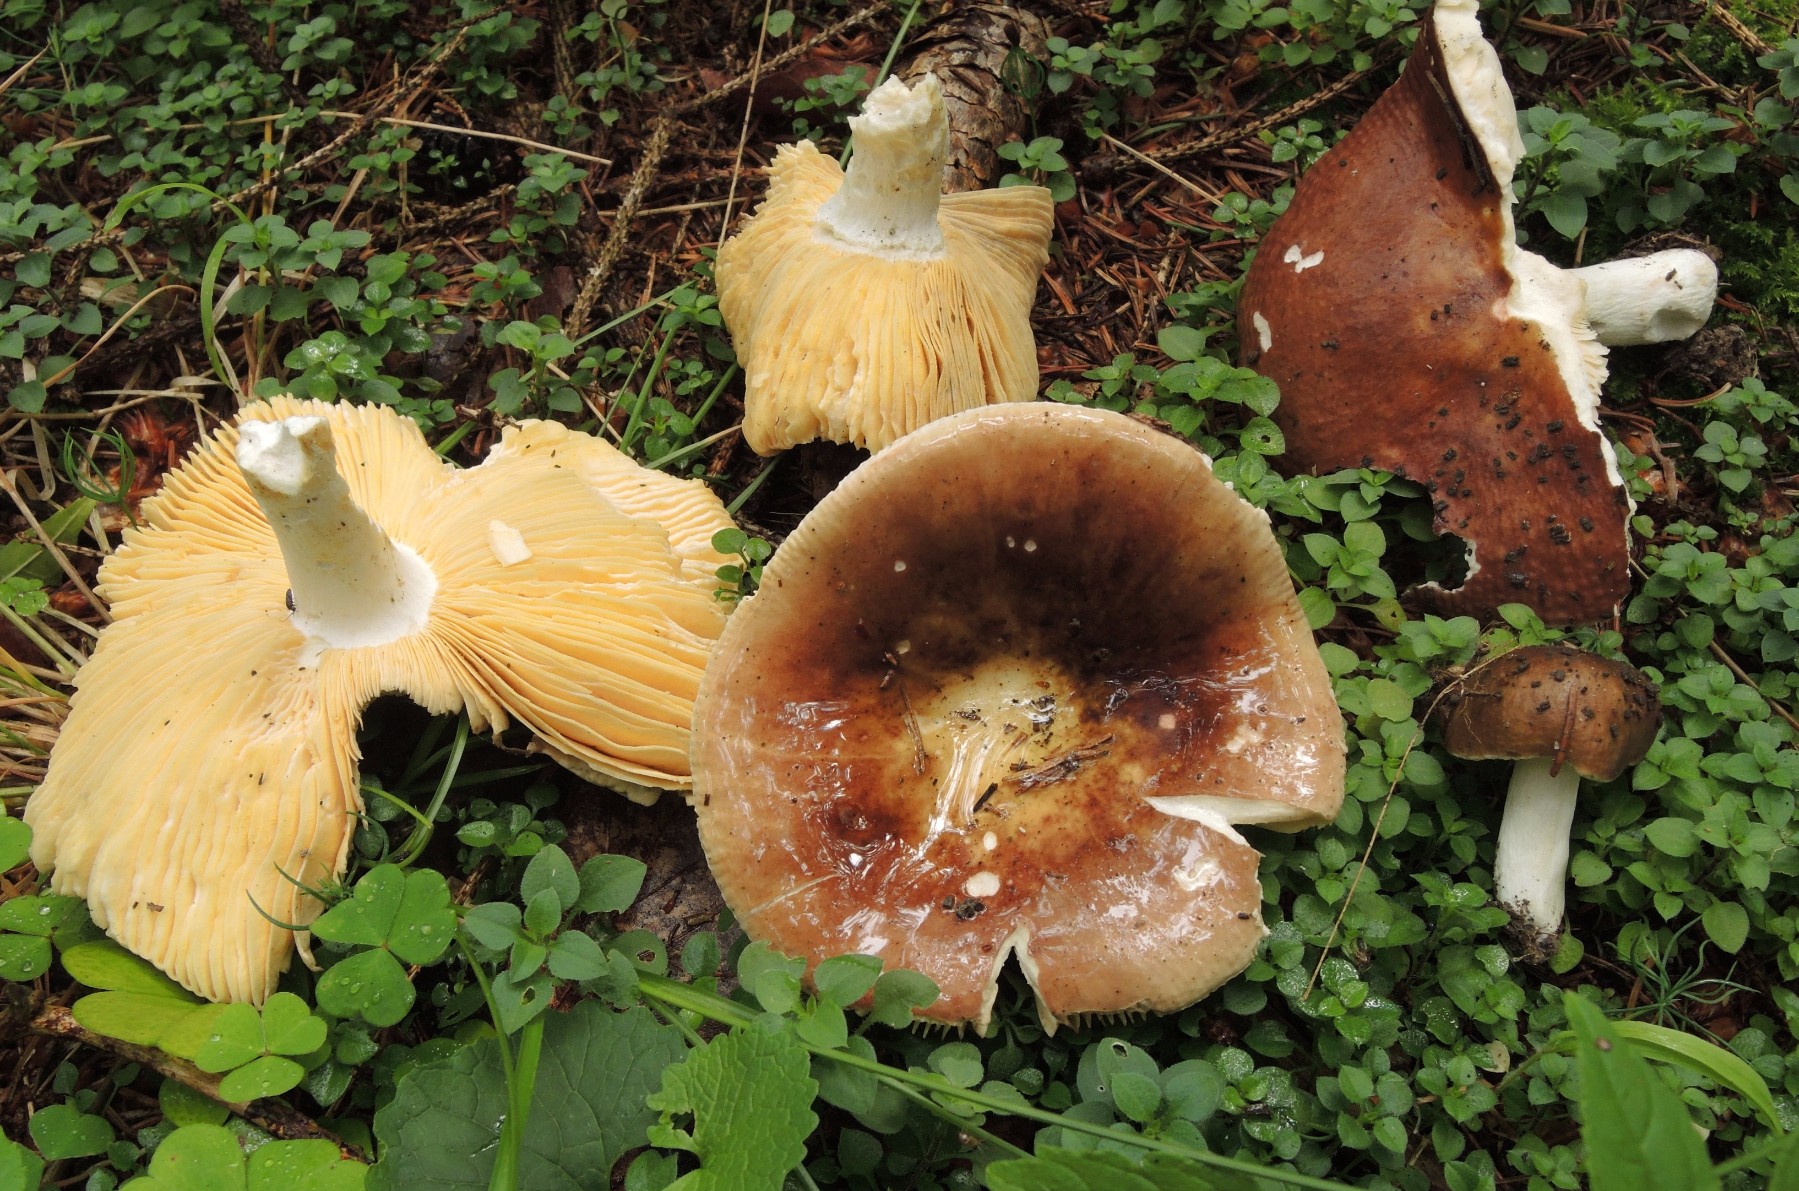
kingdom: Fungi
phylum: Basidiomycota
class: Agaricomycetes
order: Russulales
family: Russulaceae
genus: Russula
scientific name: Russula integra
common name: mandel-skørhat
